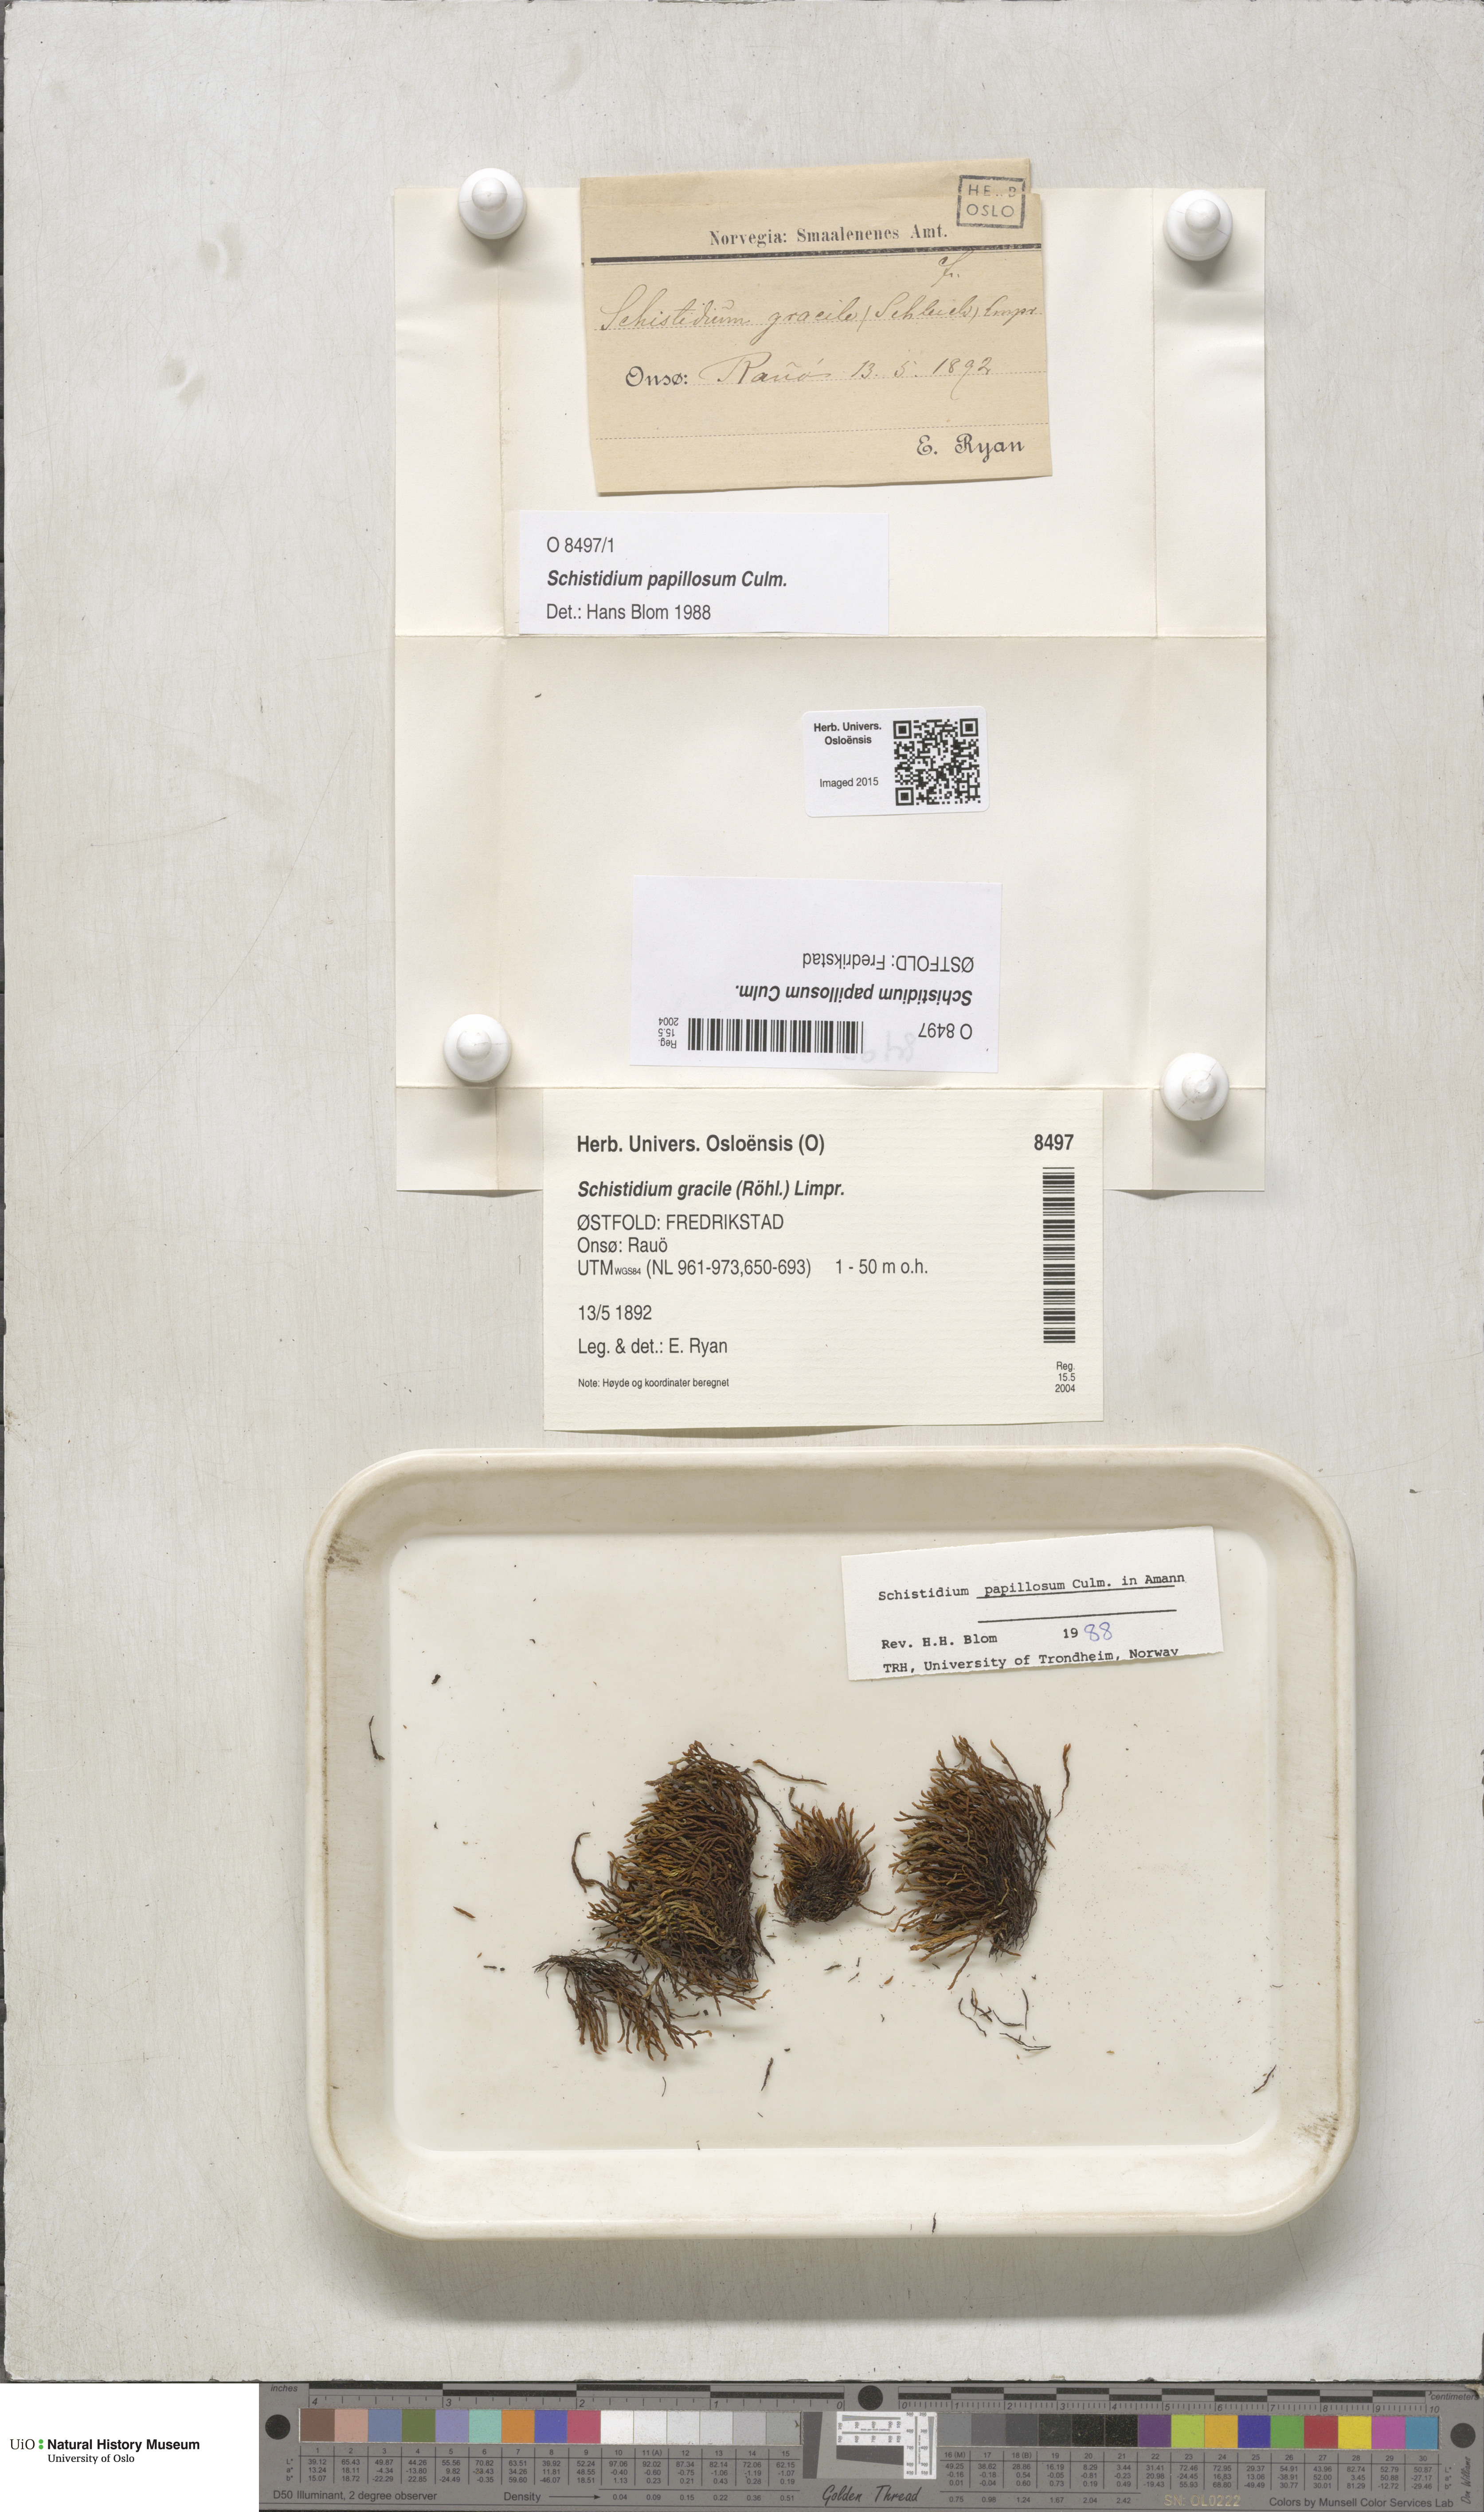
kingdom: Plantae
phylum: Bryophyta
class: Bryopsida
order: Grimmiales
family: Grimmiaceae
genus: Schistidium
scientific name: Schistidium papillosum
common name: Papillose bloom moss
